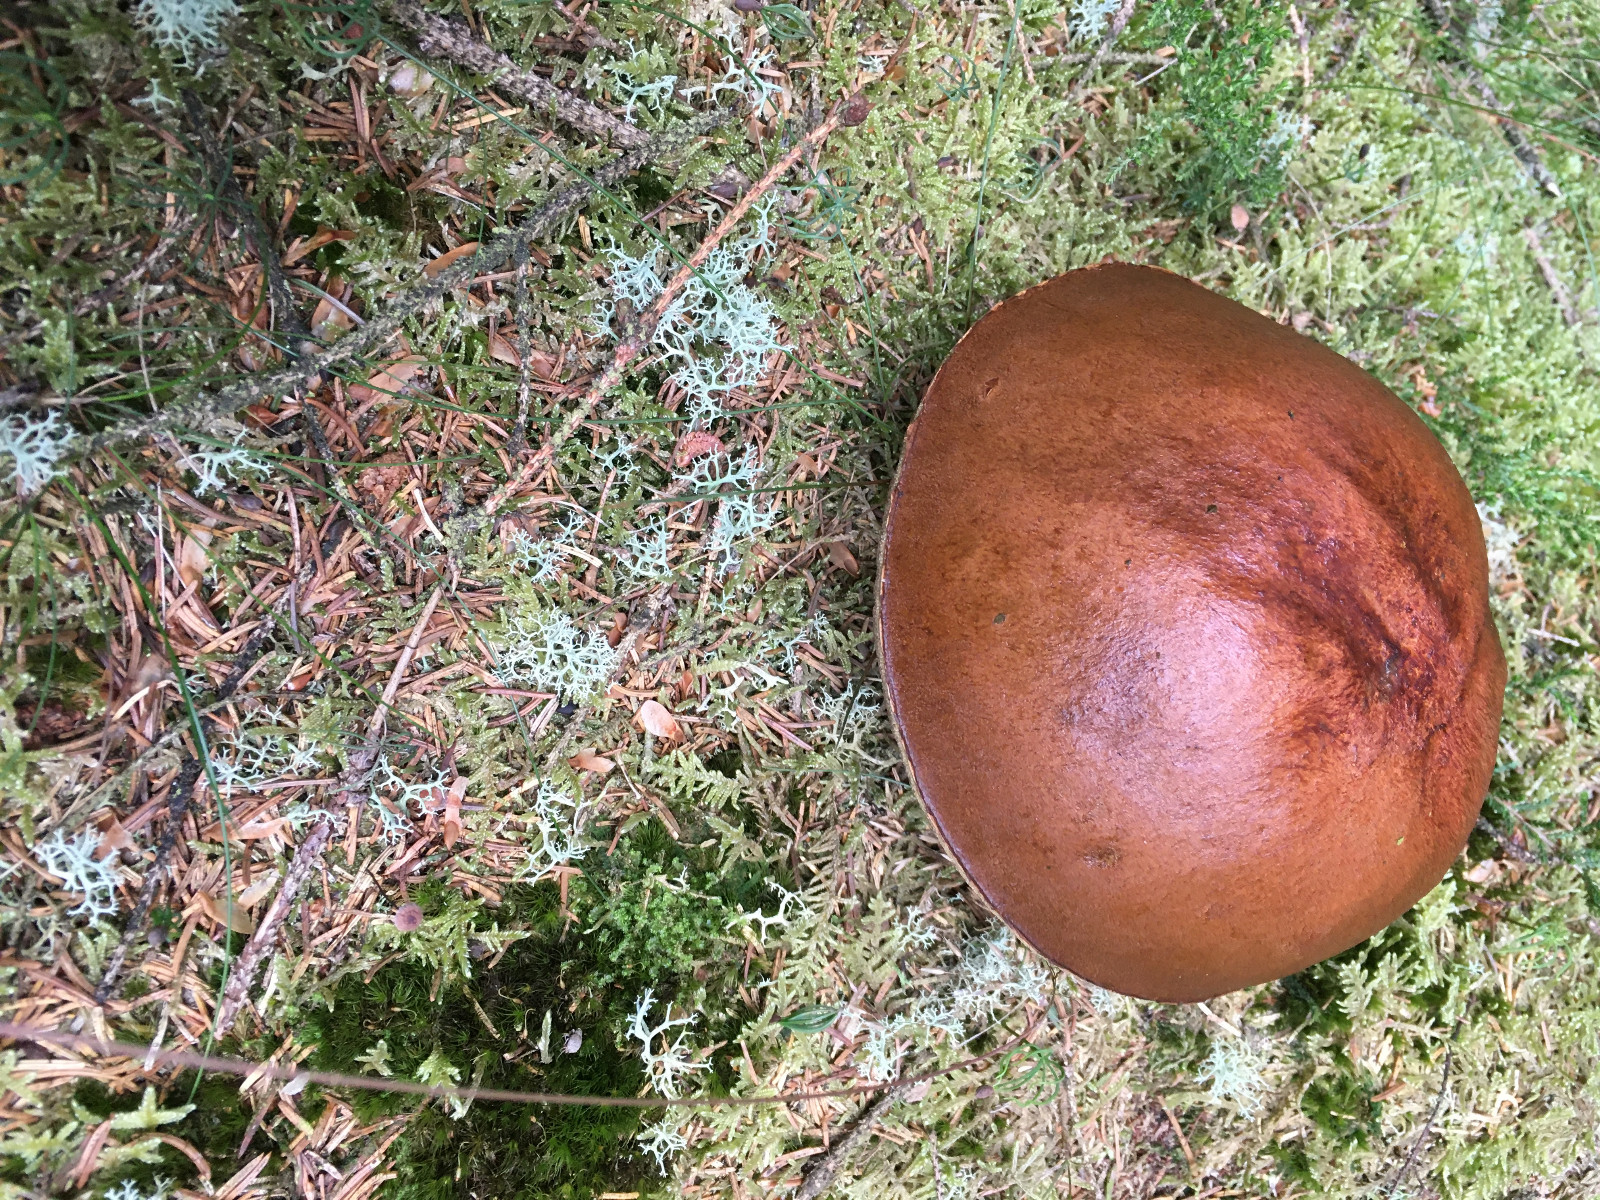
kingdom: Fungi
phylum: Basidiomycota
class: Agaricomycetes
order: Boletales
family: Boletaceae
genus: Leccinum
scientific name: Leccinum
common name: skælrørhat
